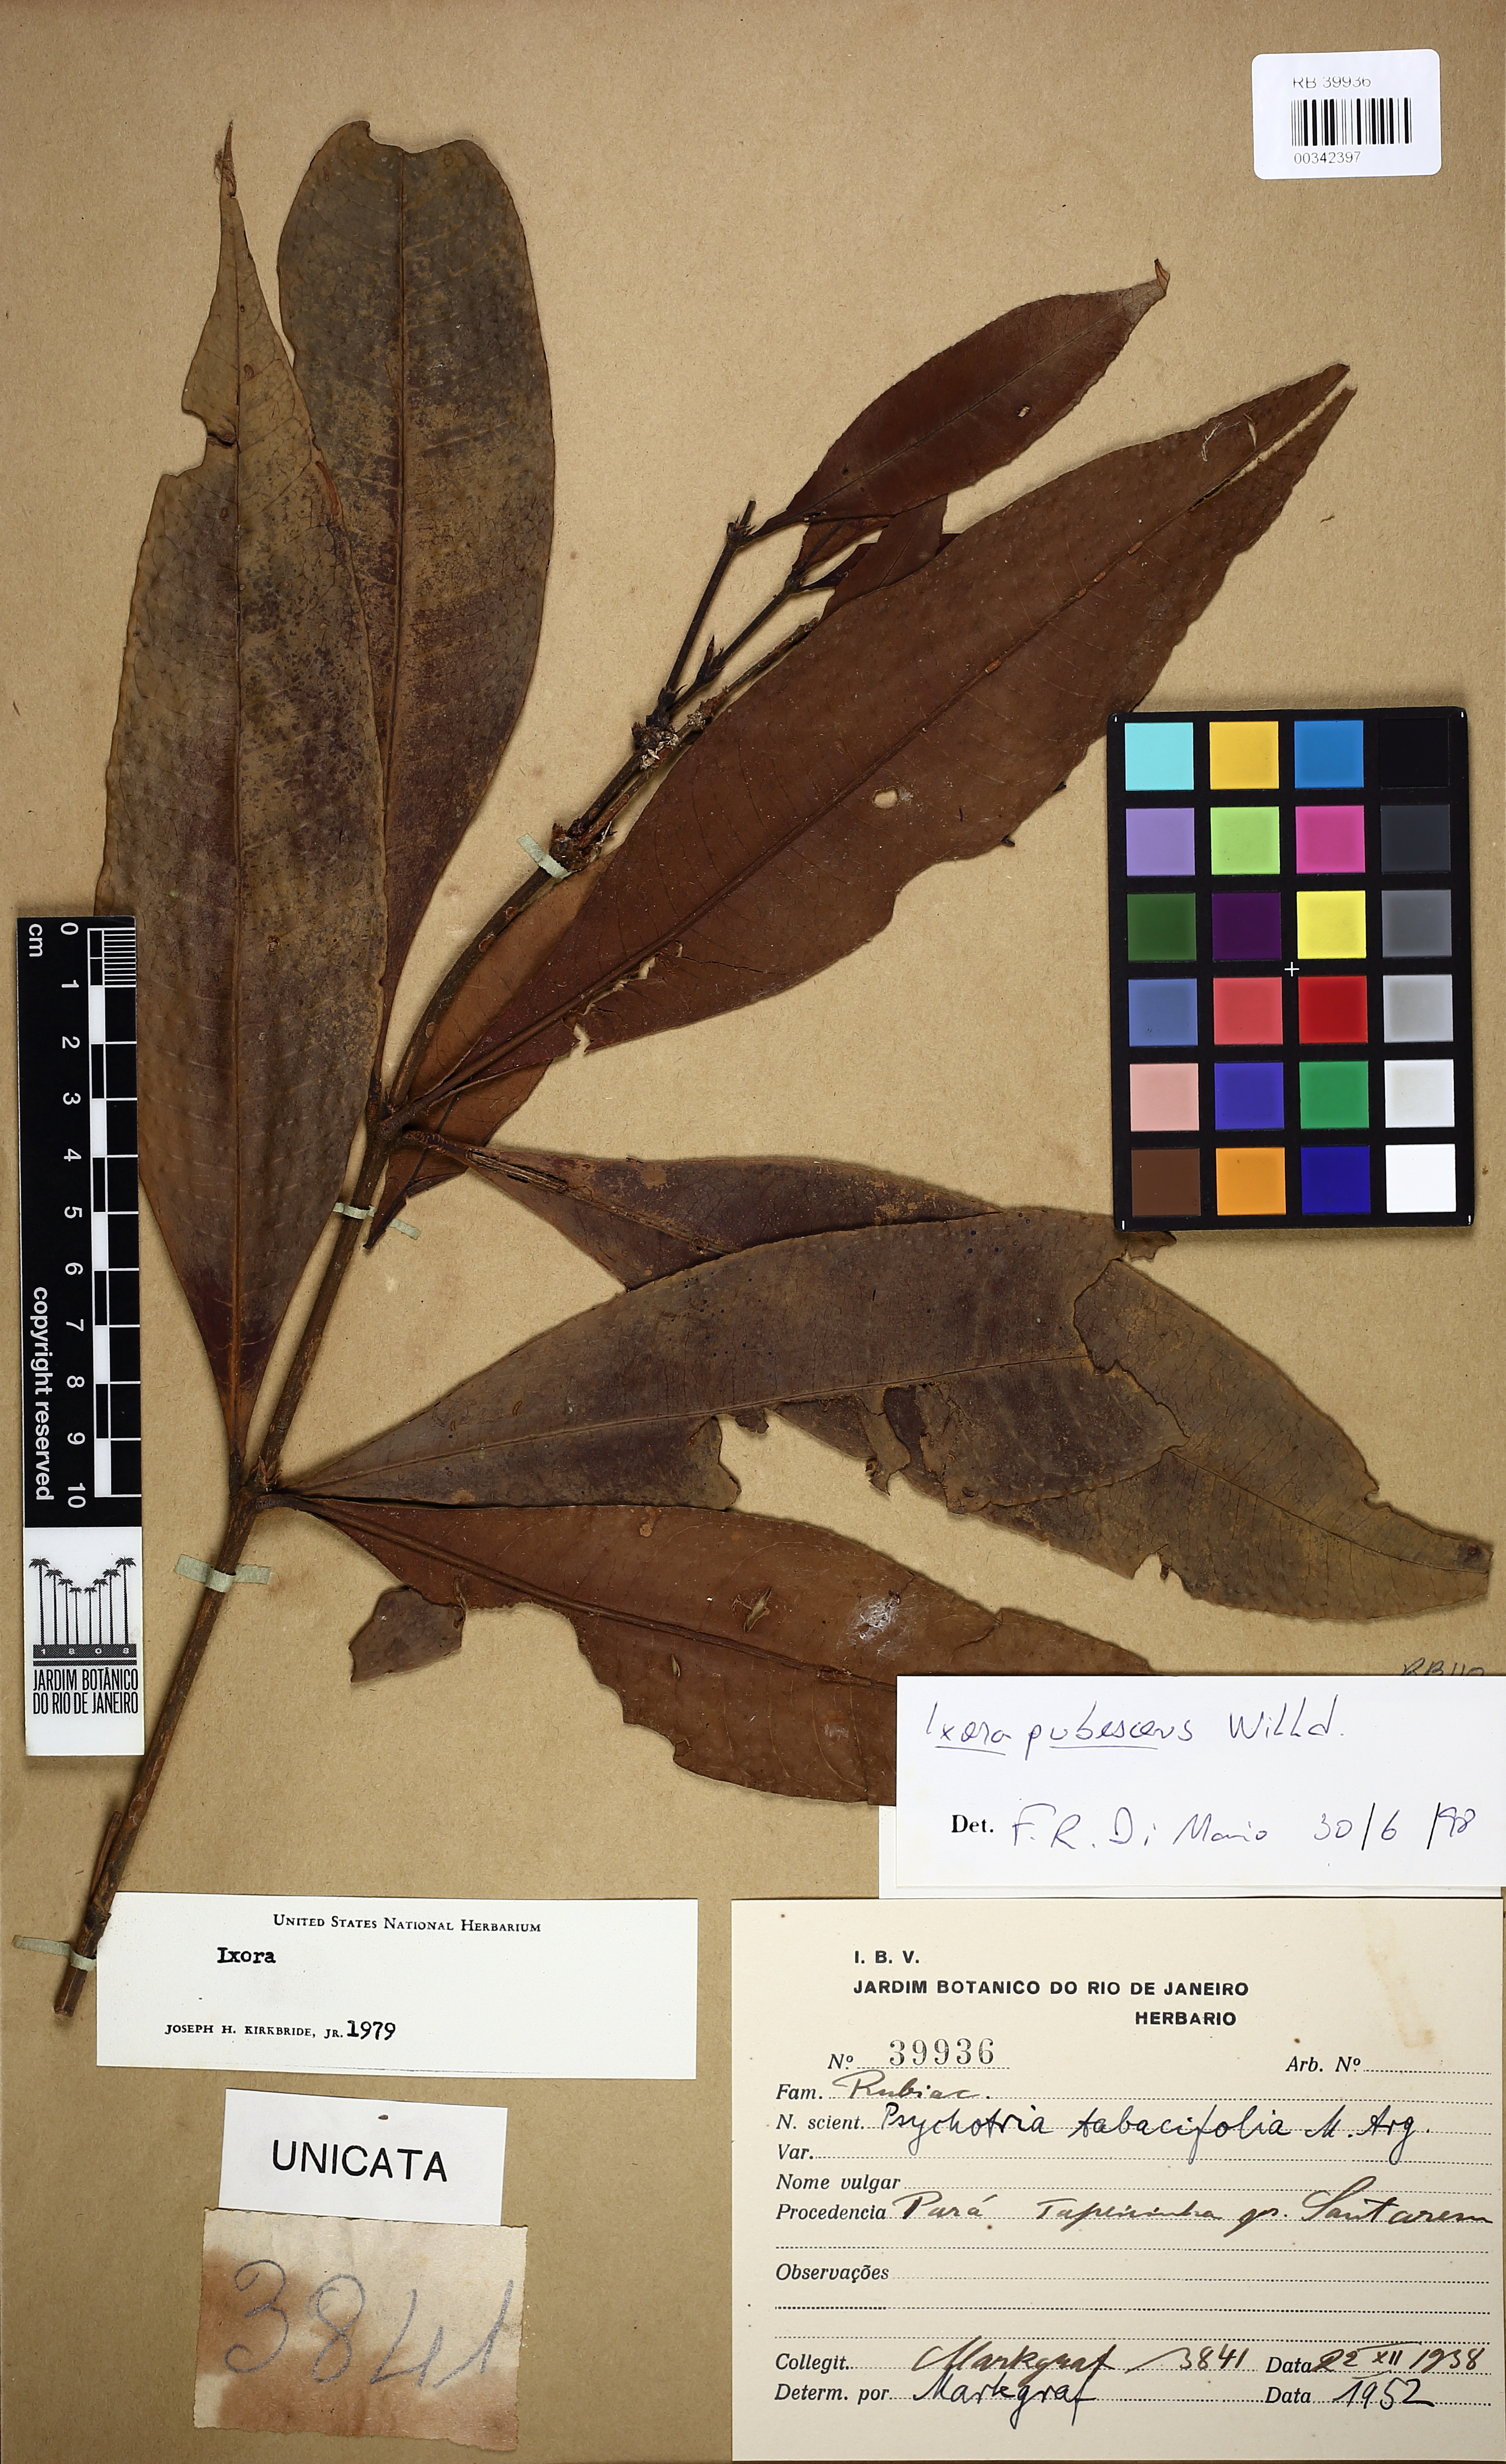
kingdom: Plantae
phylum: Tracheophyta
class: Magnoliopsida
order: Gentianales
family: Rubiaceae
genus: Ixora
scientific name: Ixora pubescens
